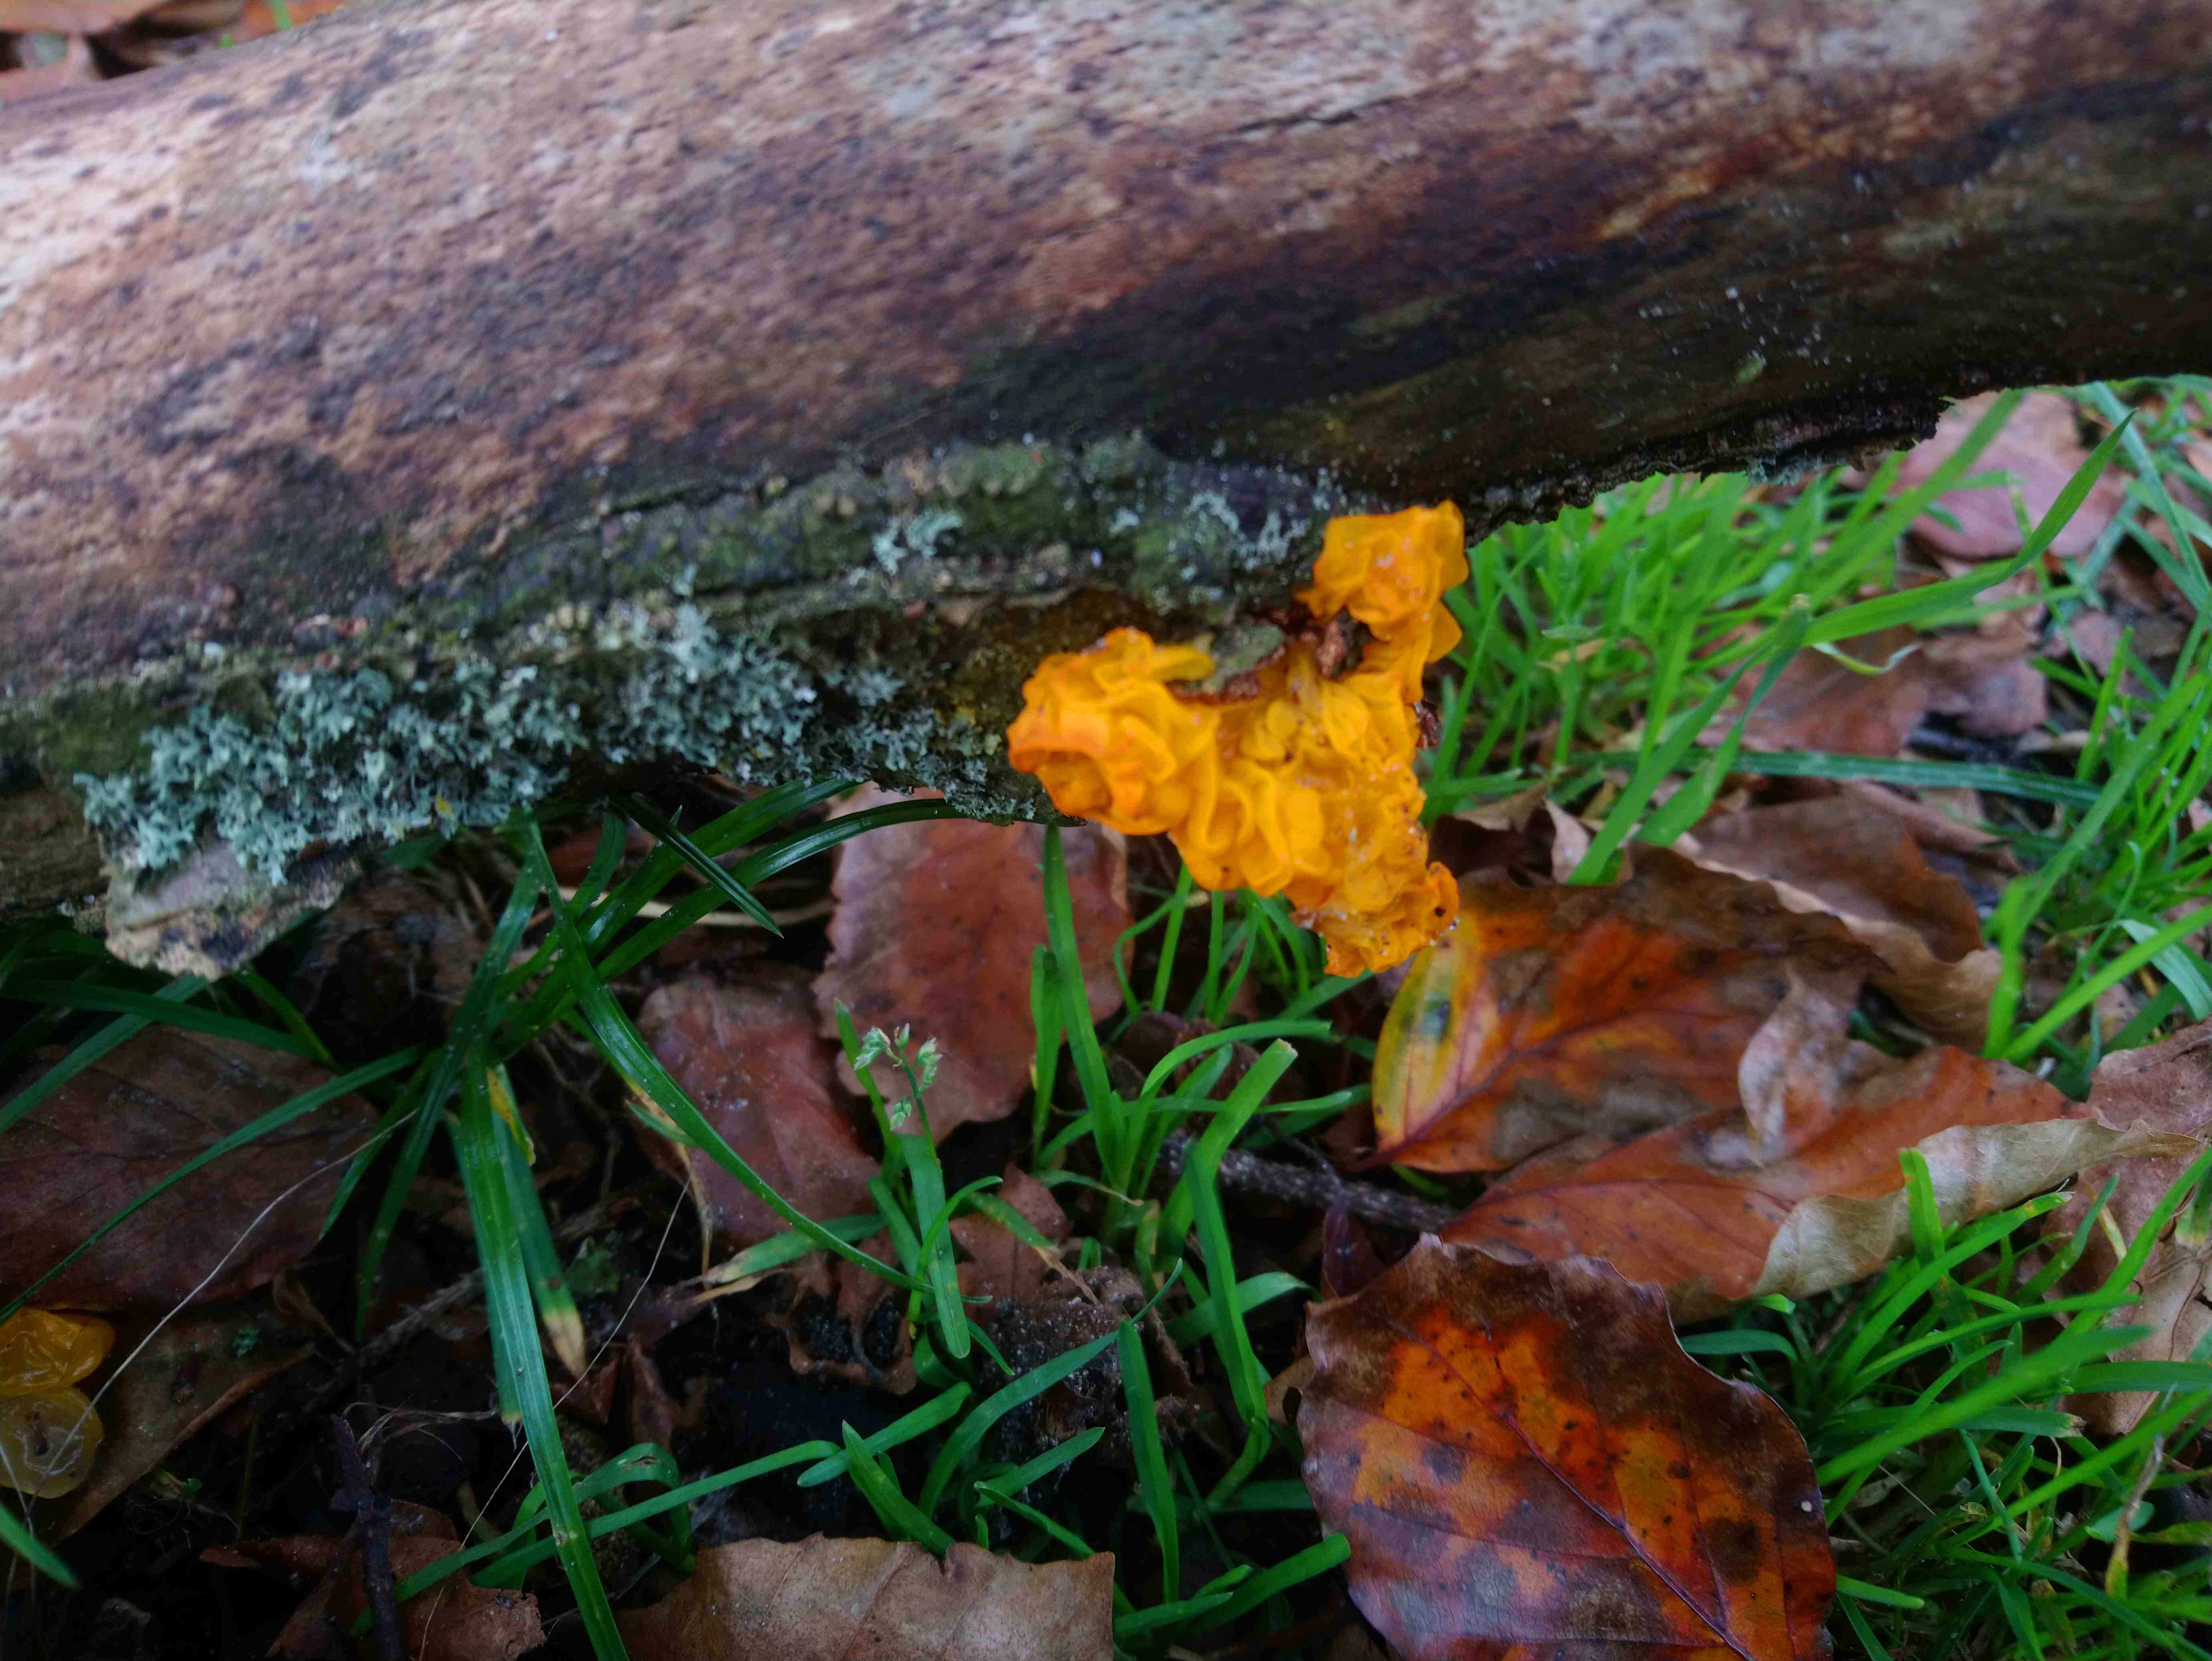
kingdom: Fungi
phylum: Basidiomycota
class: Tremellomycetes
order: Tremellales
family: Tremellaceae
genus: Tremella
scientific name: Tremella mesenterica
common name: gul bævresvamp
